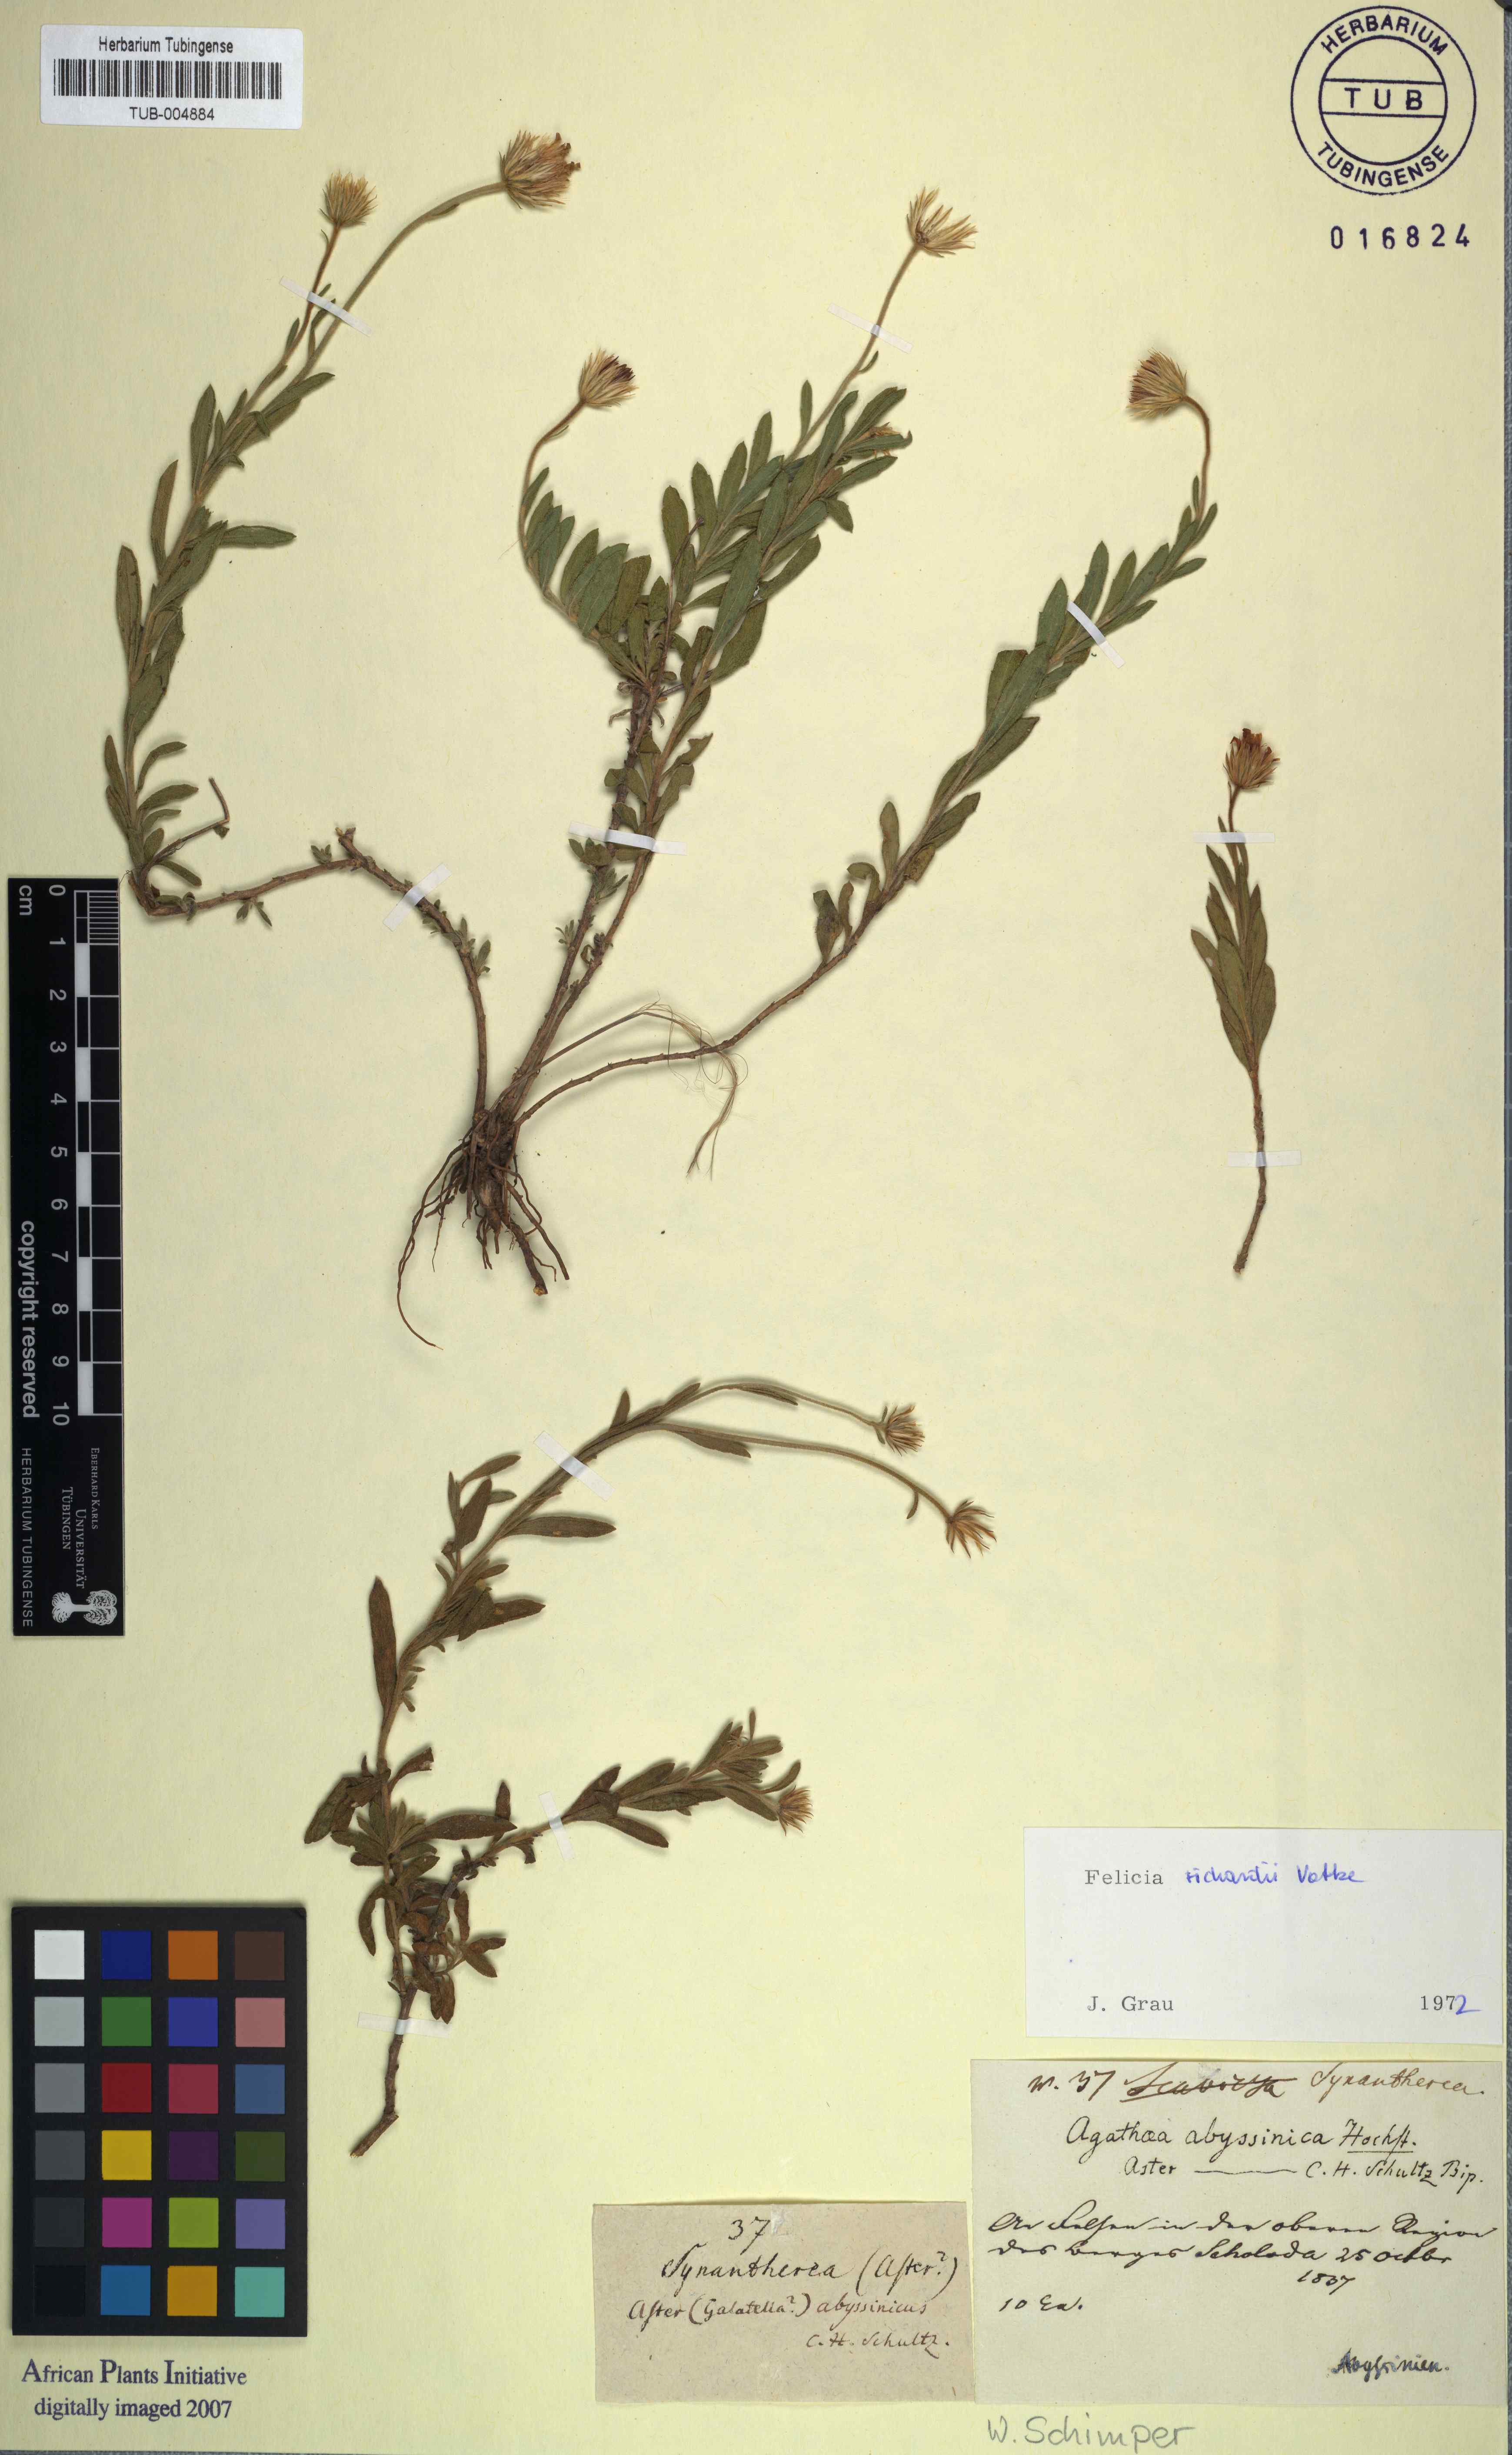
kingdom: Plantae
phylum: Tracheophyta
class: Magnoliopsida
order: Asterales
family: Asteraceae
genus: Felicia
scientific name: Felicia dentata
